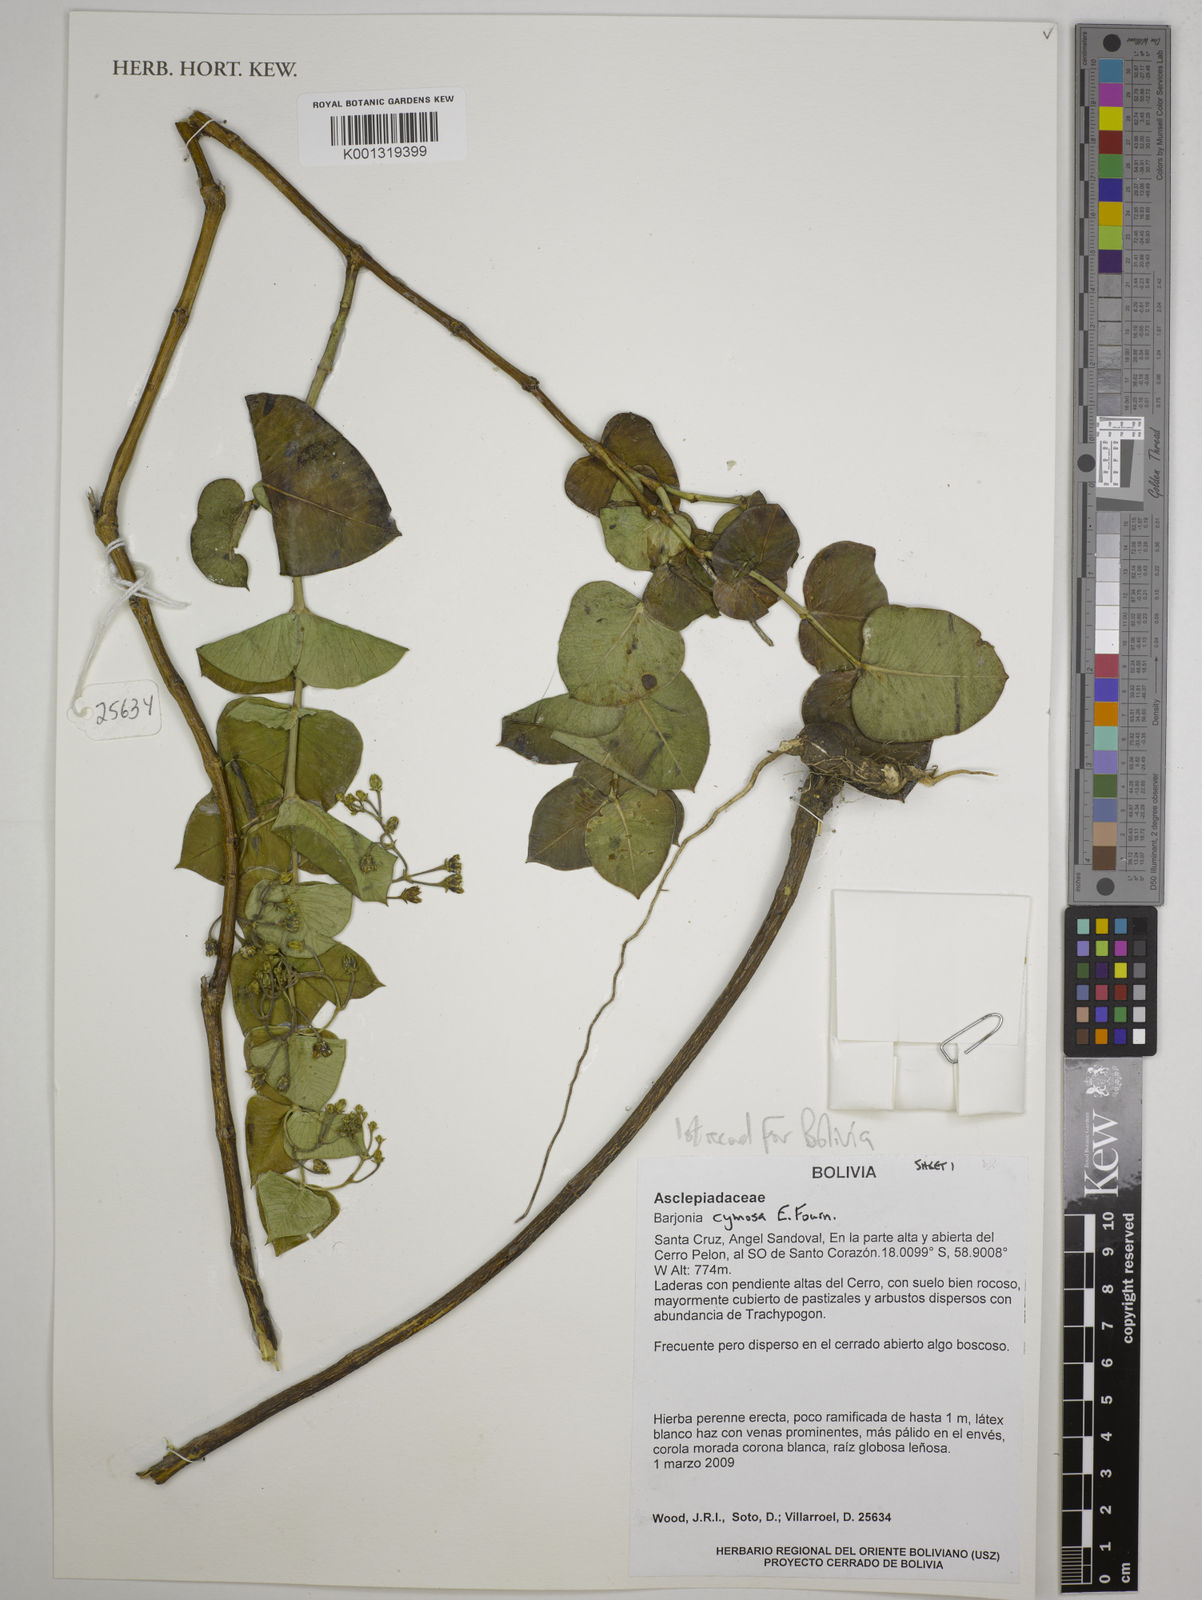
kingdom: Plantae
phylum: Tracheophyta
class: Magnoliopsida
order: Gentianales
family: Apocynaceae
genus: Barjonia
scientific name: Barjonia cymosa
